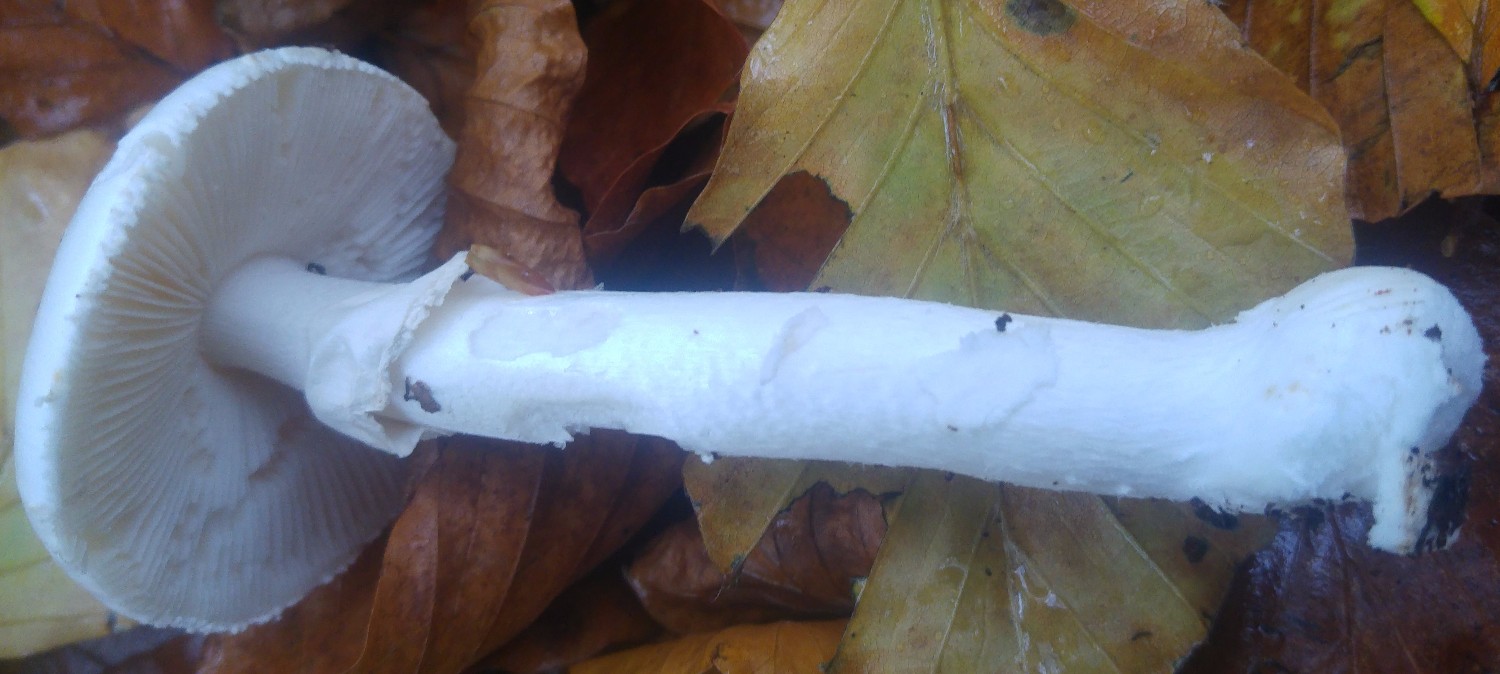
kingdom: Fungi
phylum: Basidiomycota
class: Agaricomycetes
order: Agaricales
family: Amanitaceae
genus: Amanita
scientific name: Amanita
